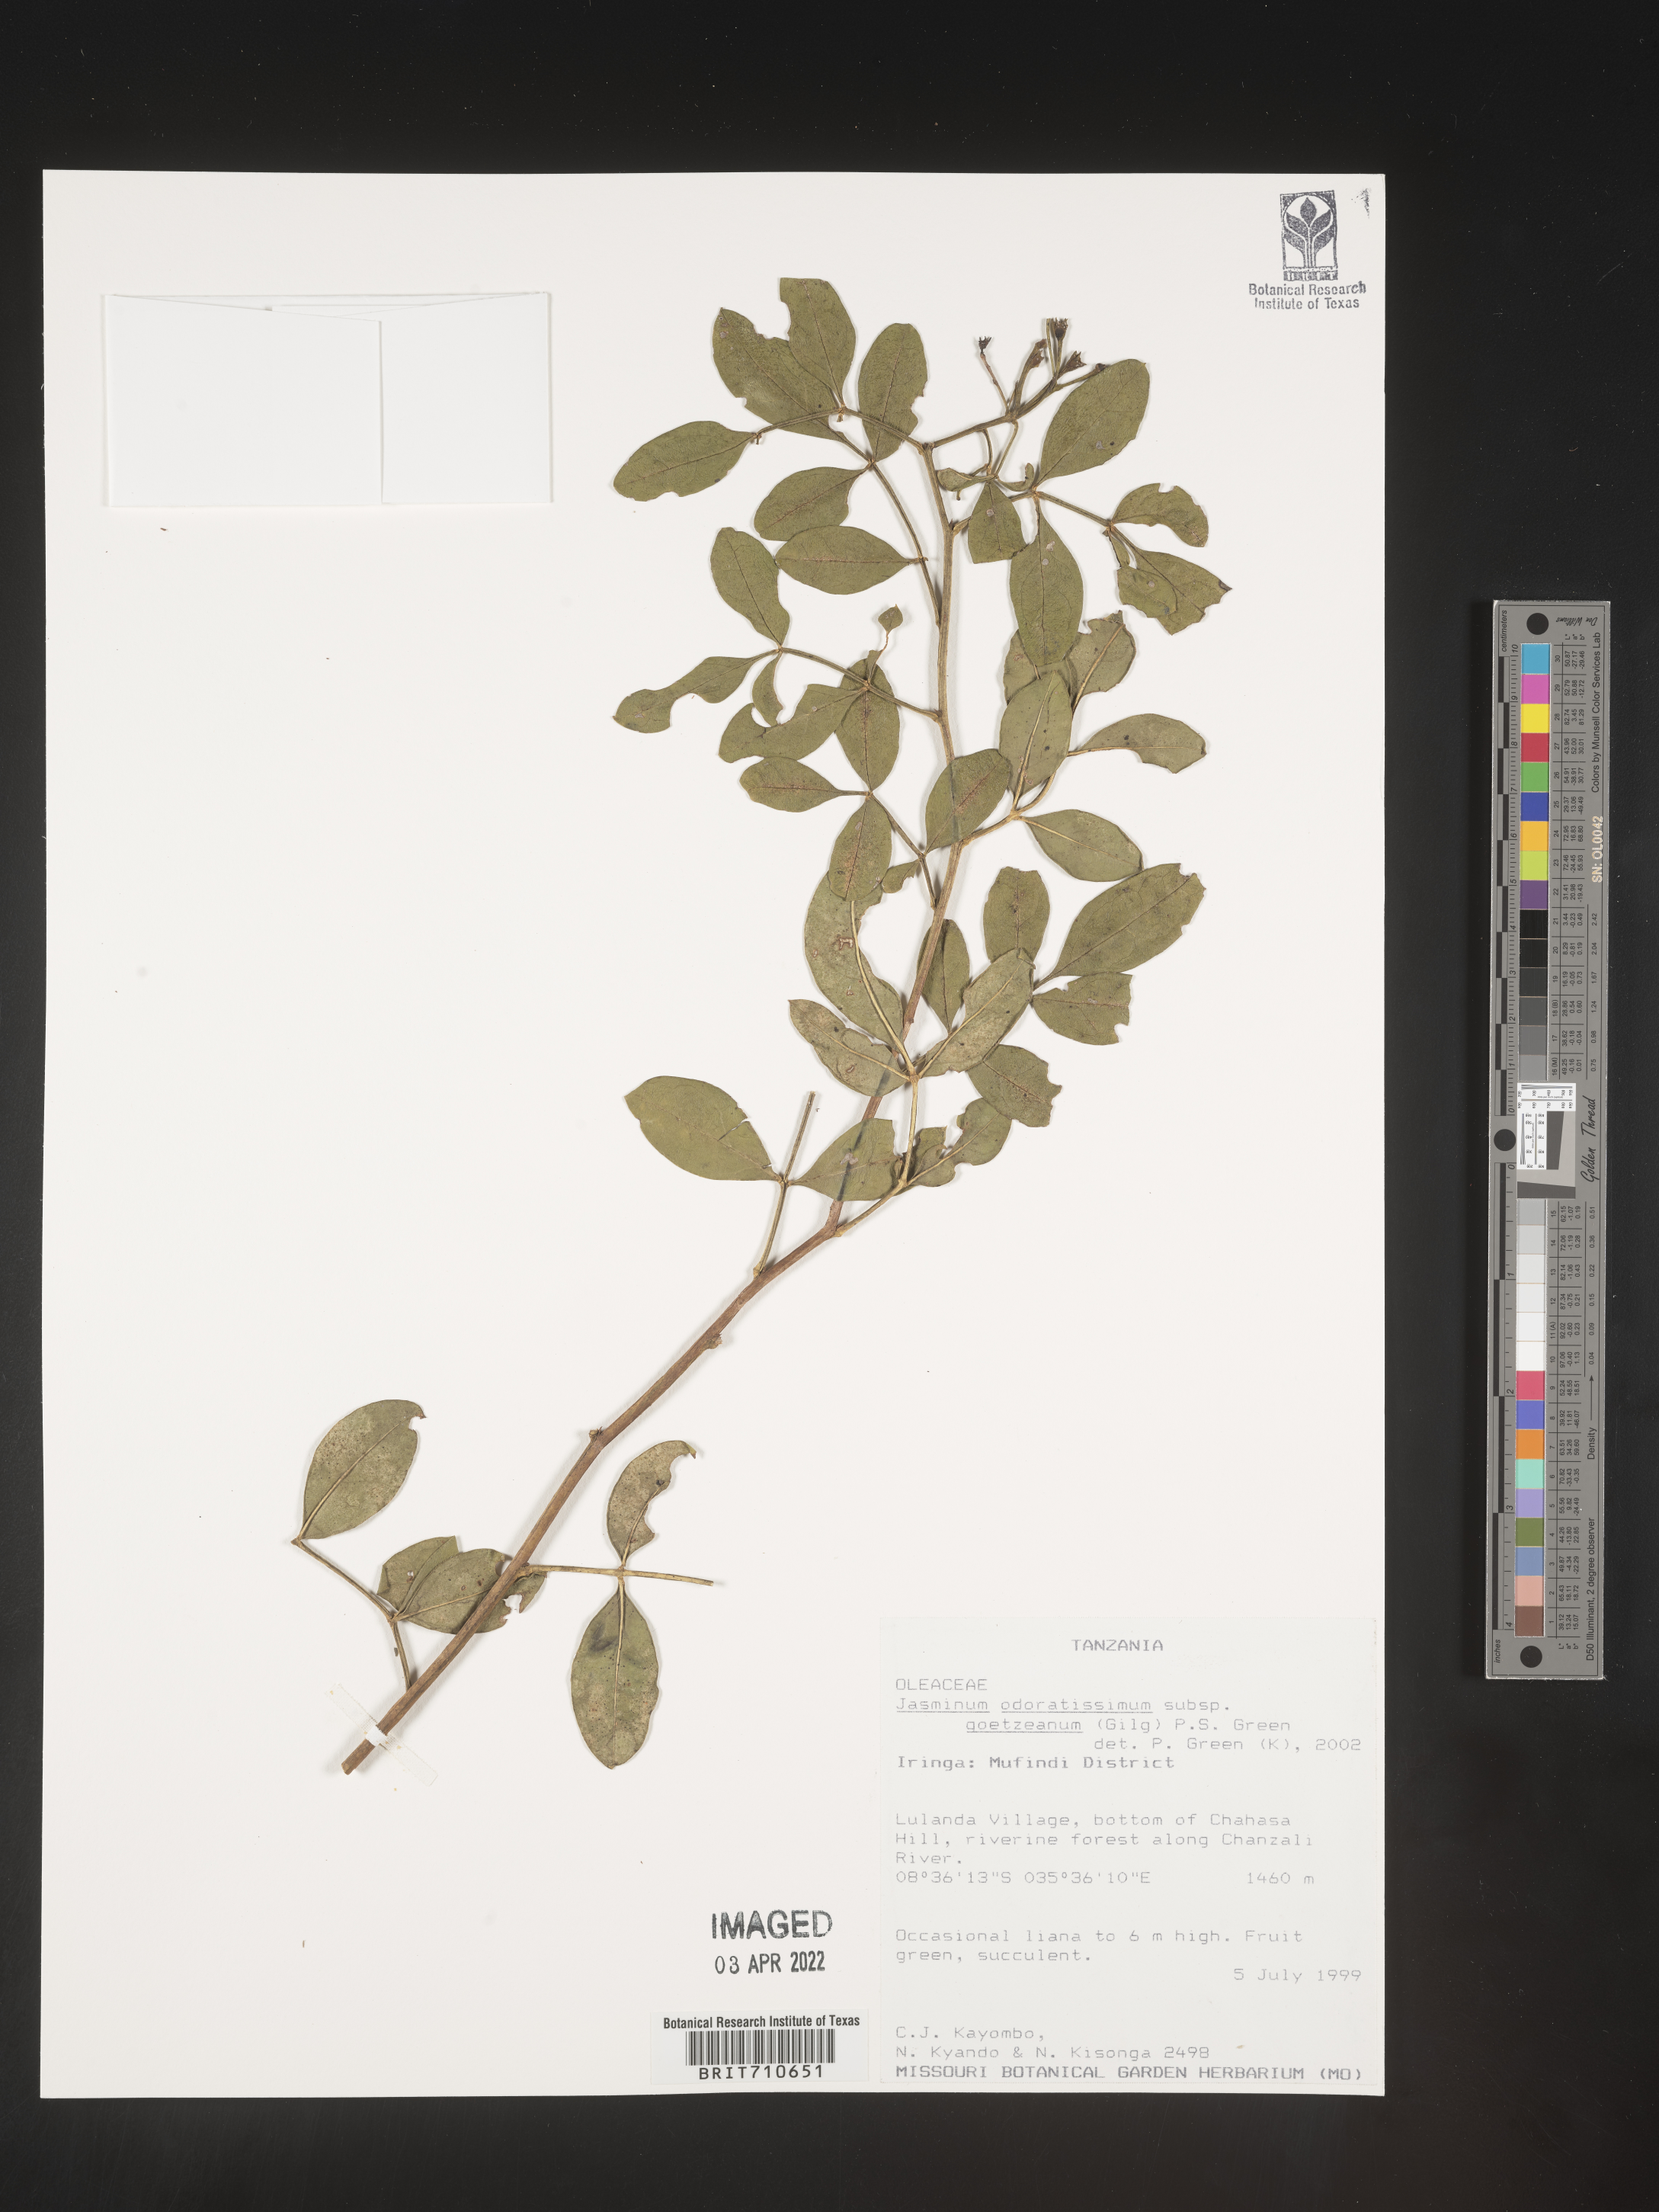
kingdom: Plantae
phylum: Tracheophyta
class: Magnoliopsida
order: Lamiales
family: Oleaceae
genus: Jasminum
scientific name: Jasminum
